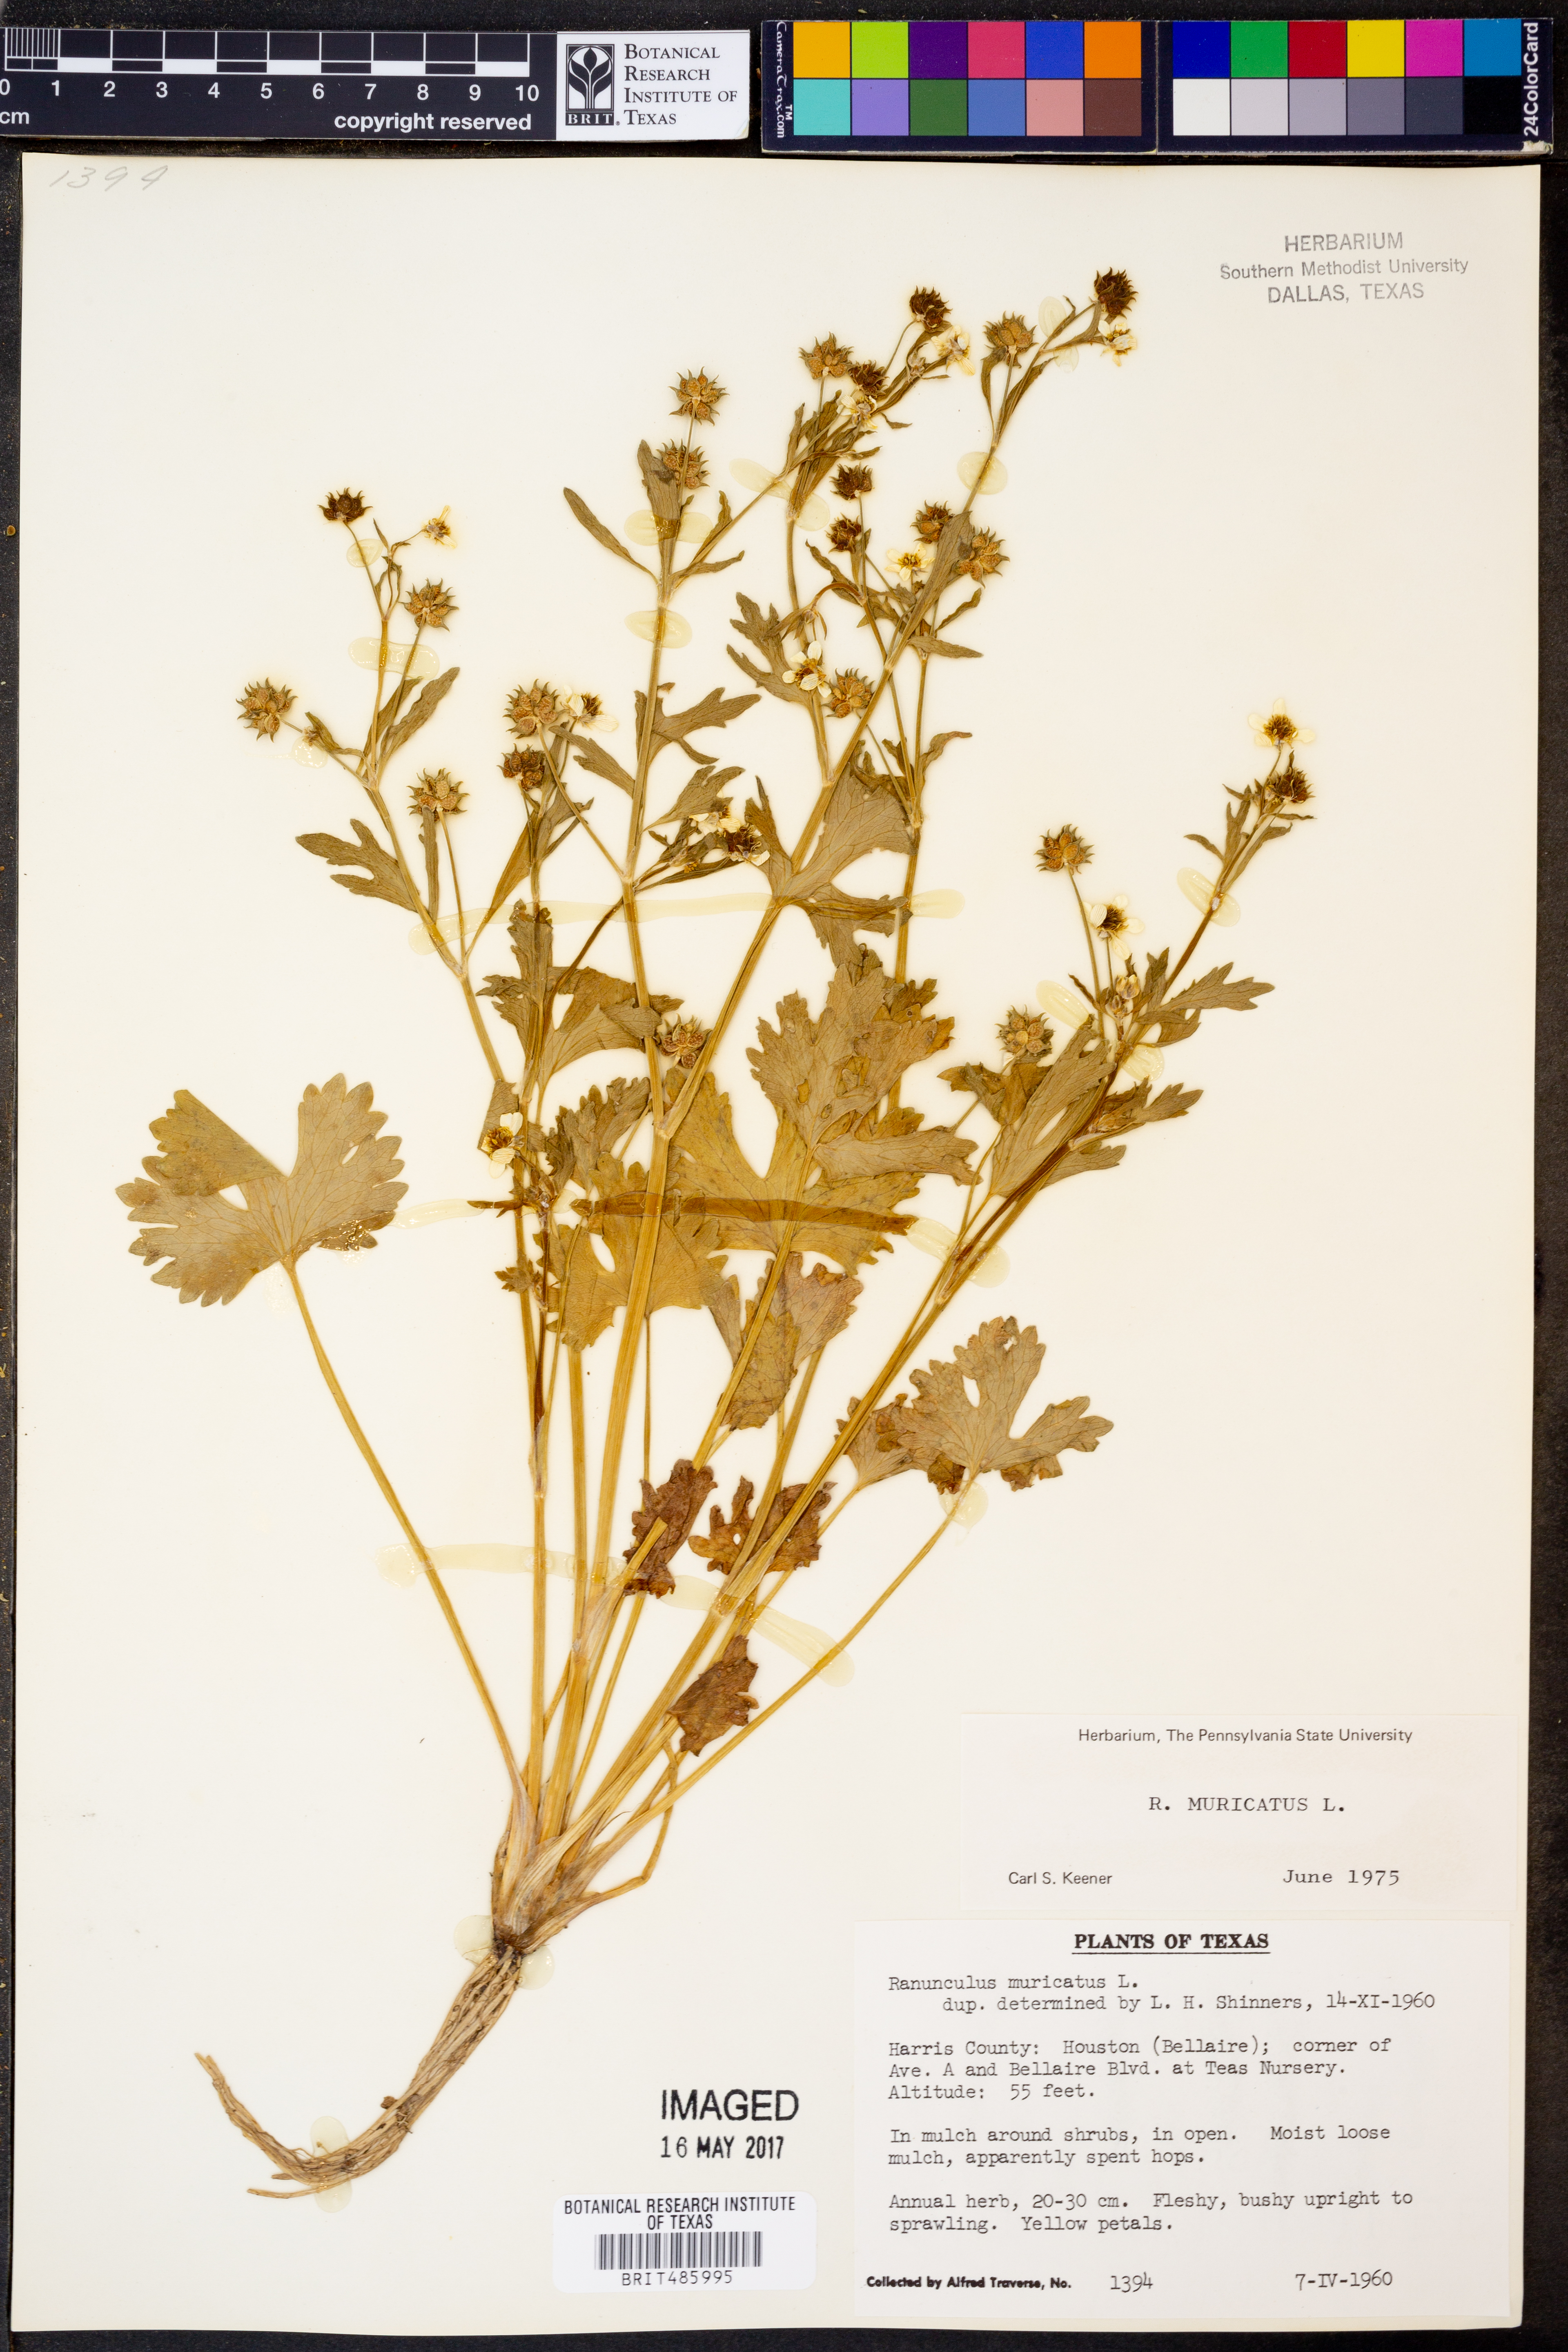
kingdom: Plantae
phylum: Tracheophyta
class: Magnoliopsida
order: Ranunculales
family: Ranunculaceae
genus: Ranunculus
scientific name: Ranunculus muricatus
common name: Rough-fruited buttercup
